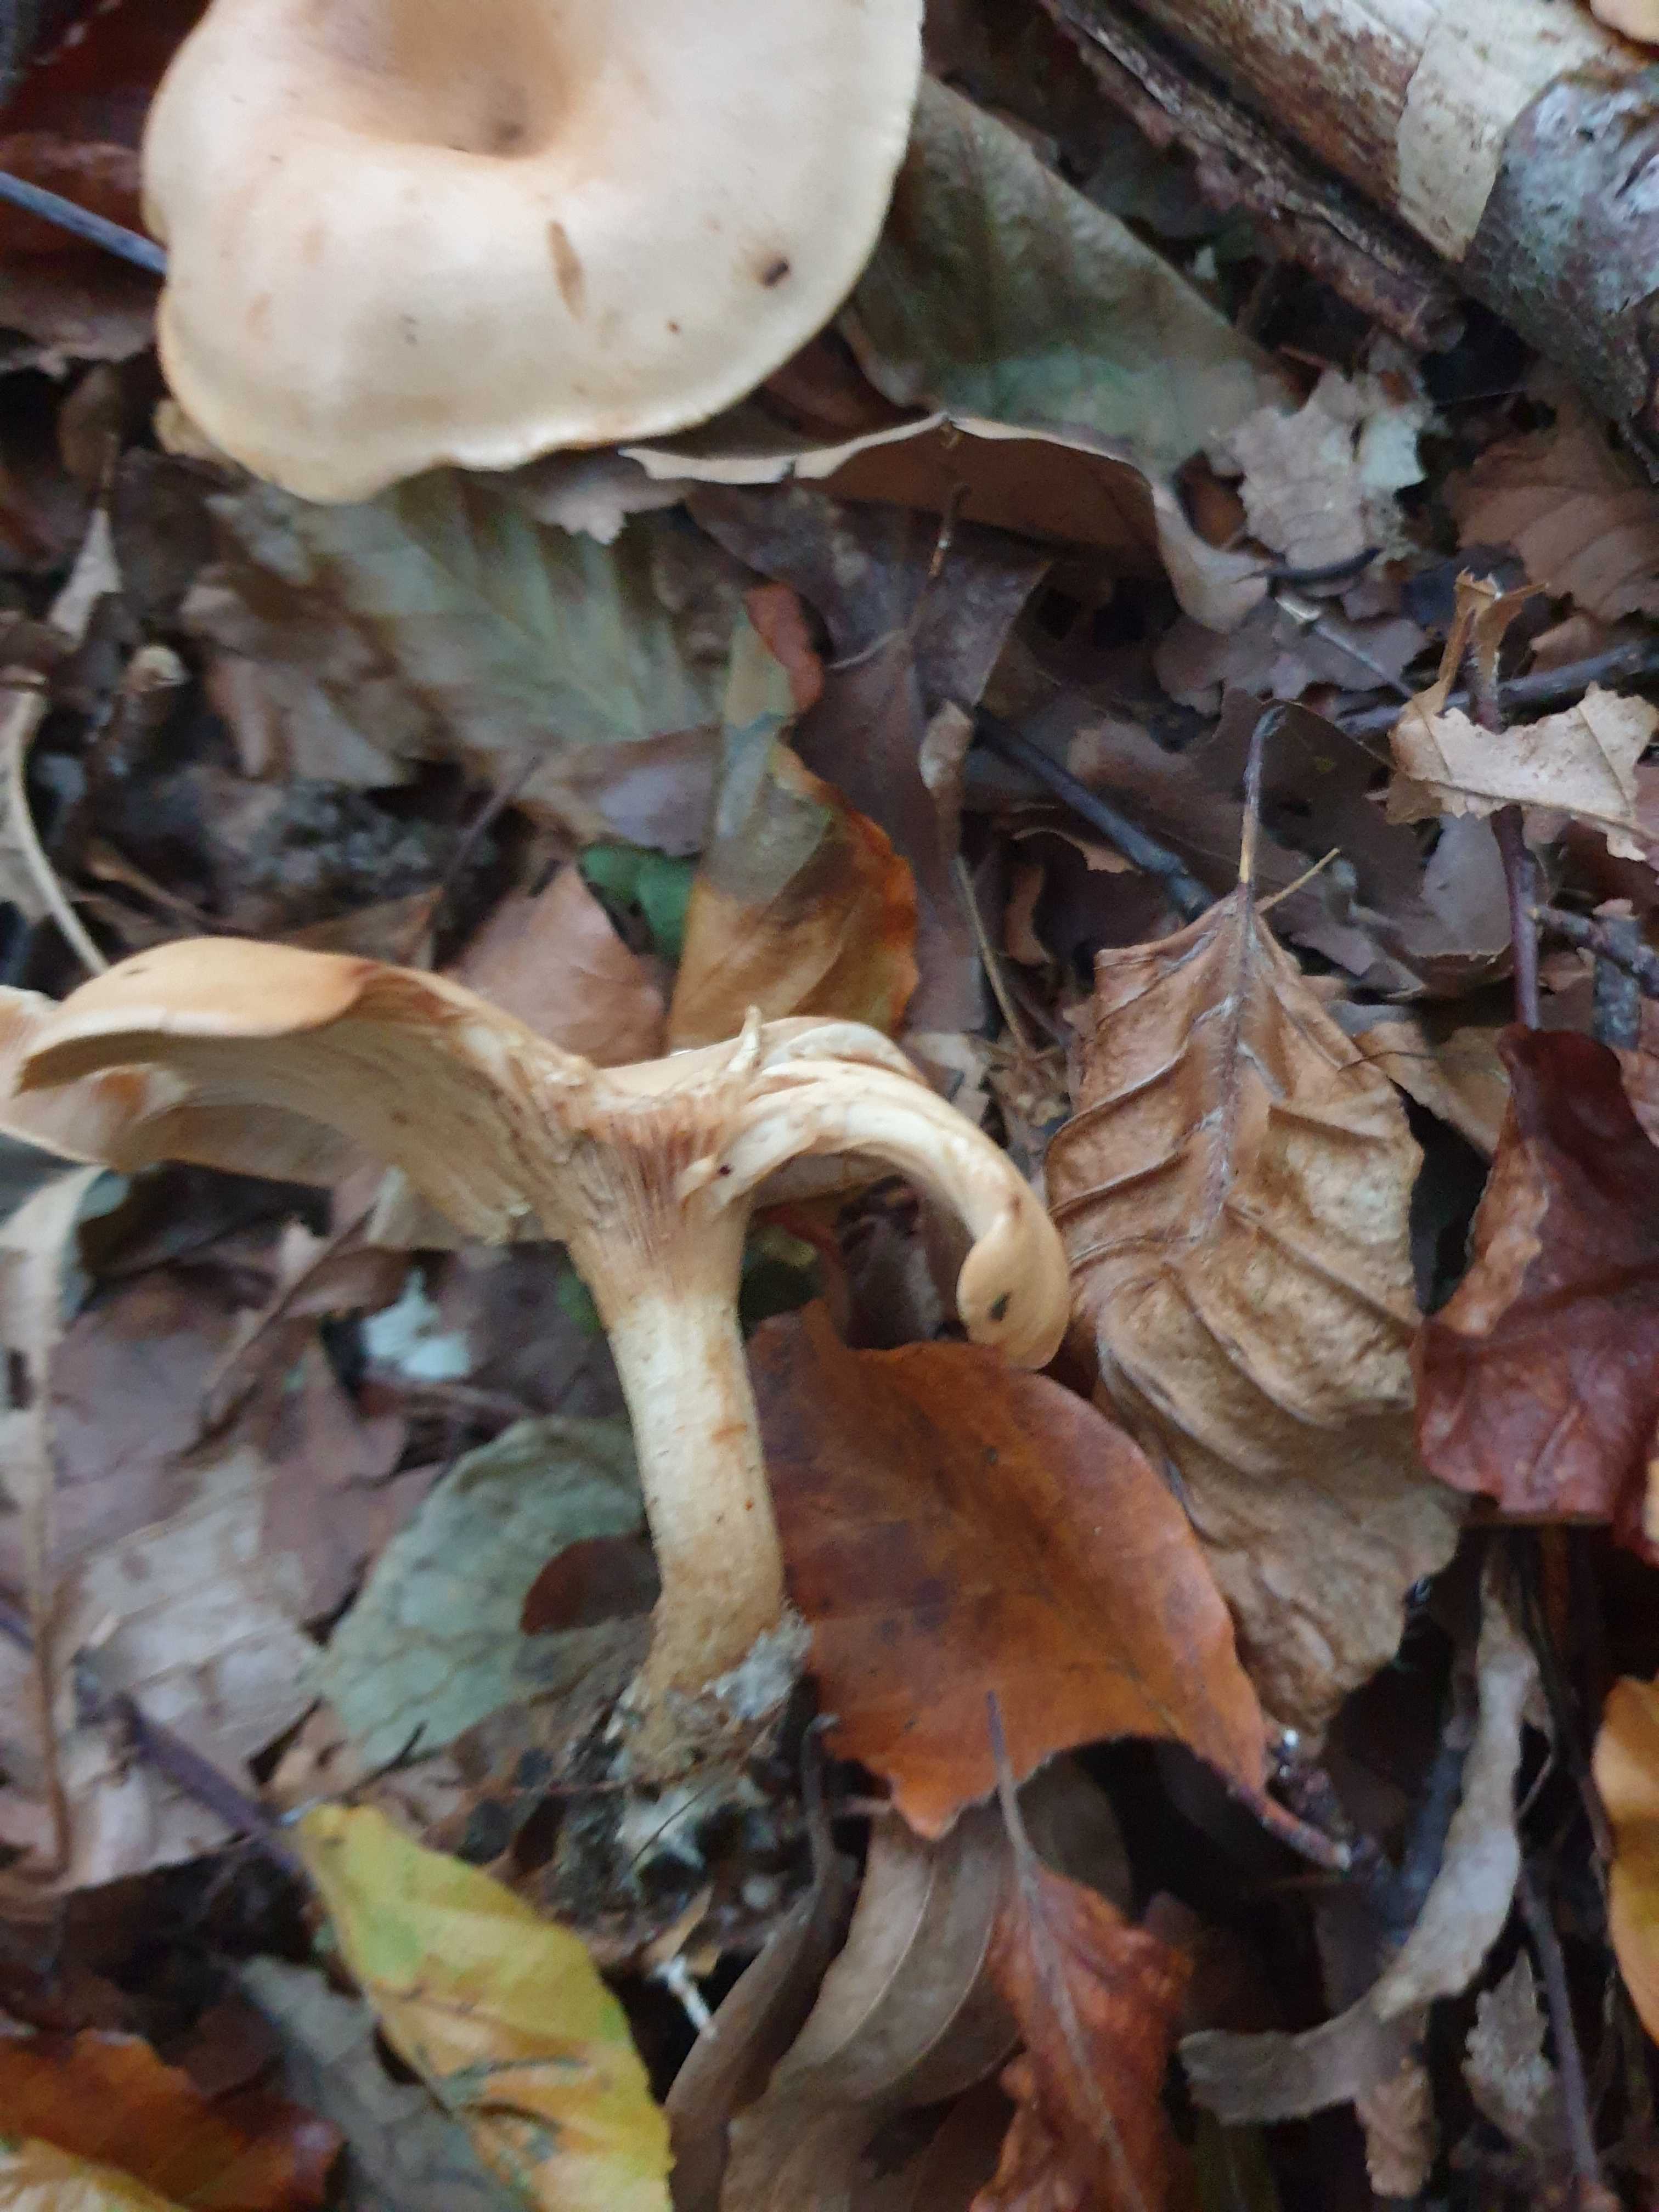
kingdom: Fungi
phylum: Basidiomycota
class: Agaricomycetes
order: Agaricales
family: Tricholomataceae
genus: Paralepista
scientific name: Paralepista flaccida
